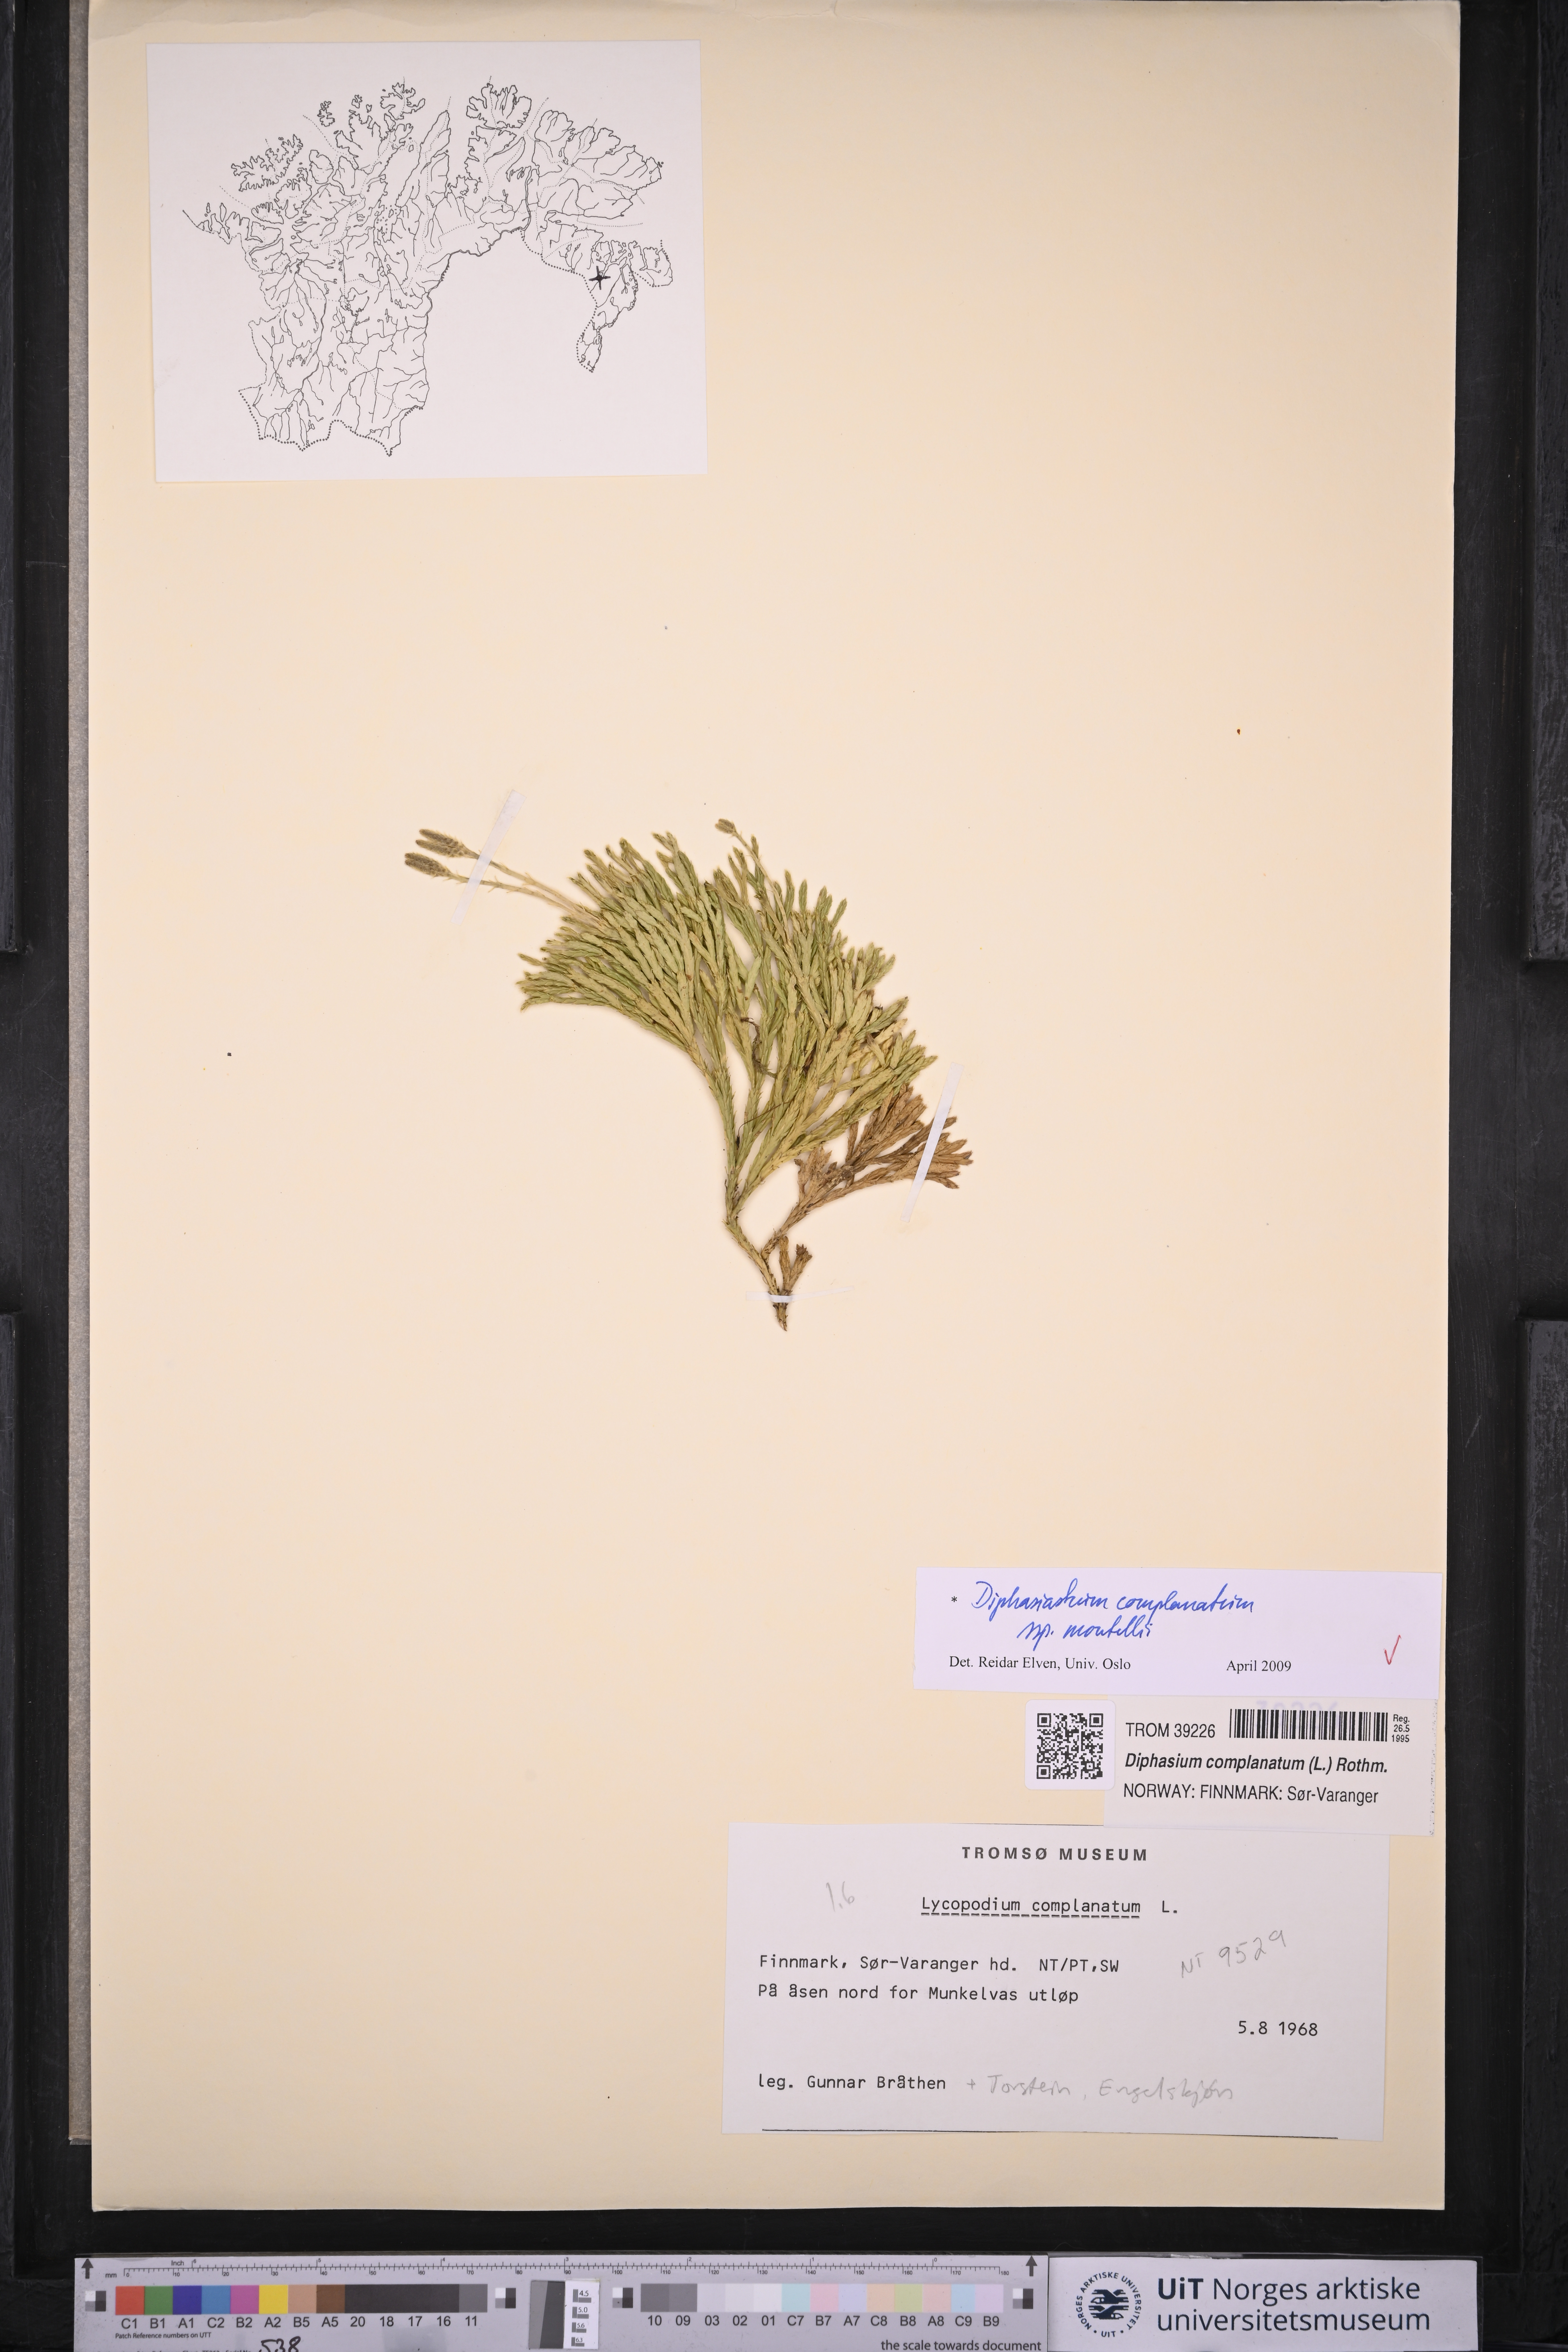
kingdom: Plantae
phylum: Tracheophyta
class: Lycopodiopsida
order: Lycopodiales
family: Lycopodiaceae
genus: Diphasiastrum
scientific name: Diphasiastrum complanatum
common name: Northern running-pine
